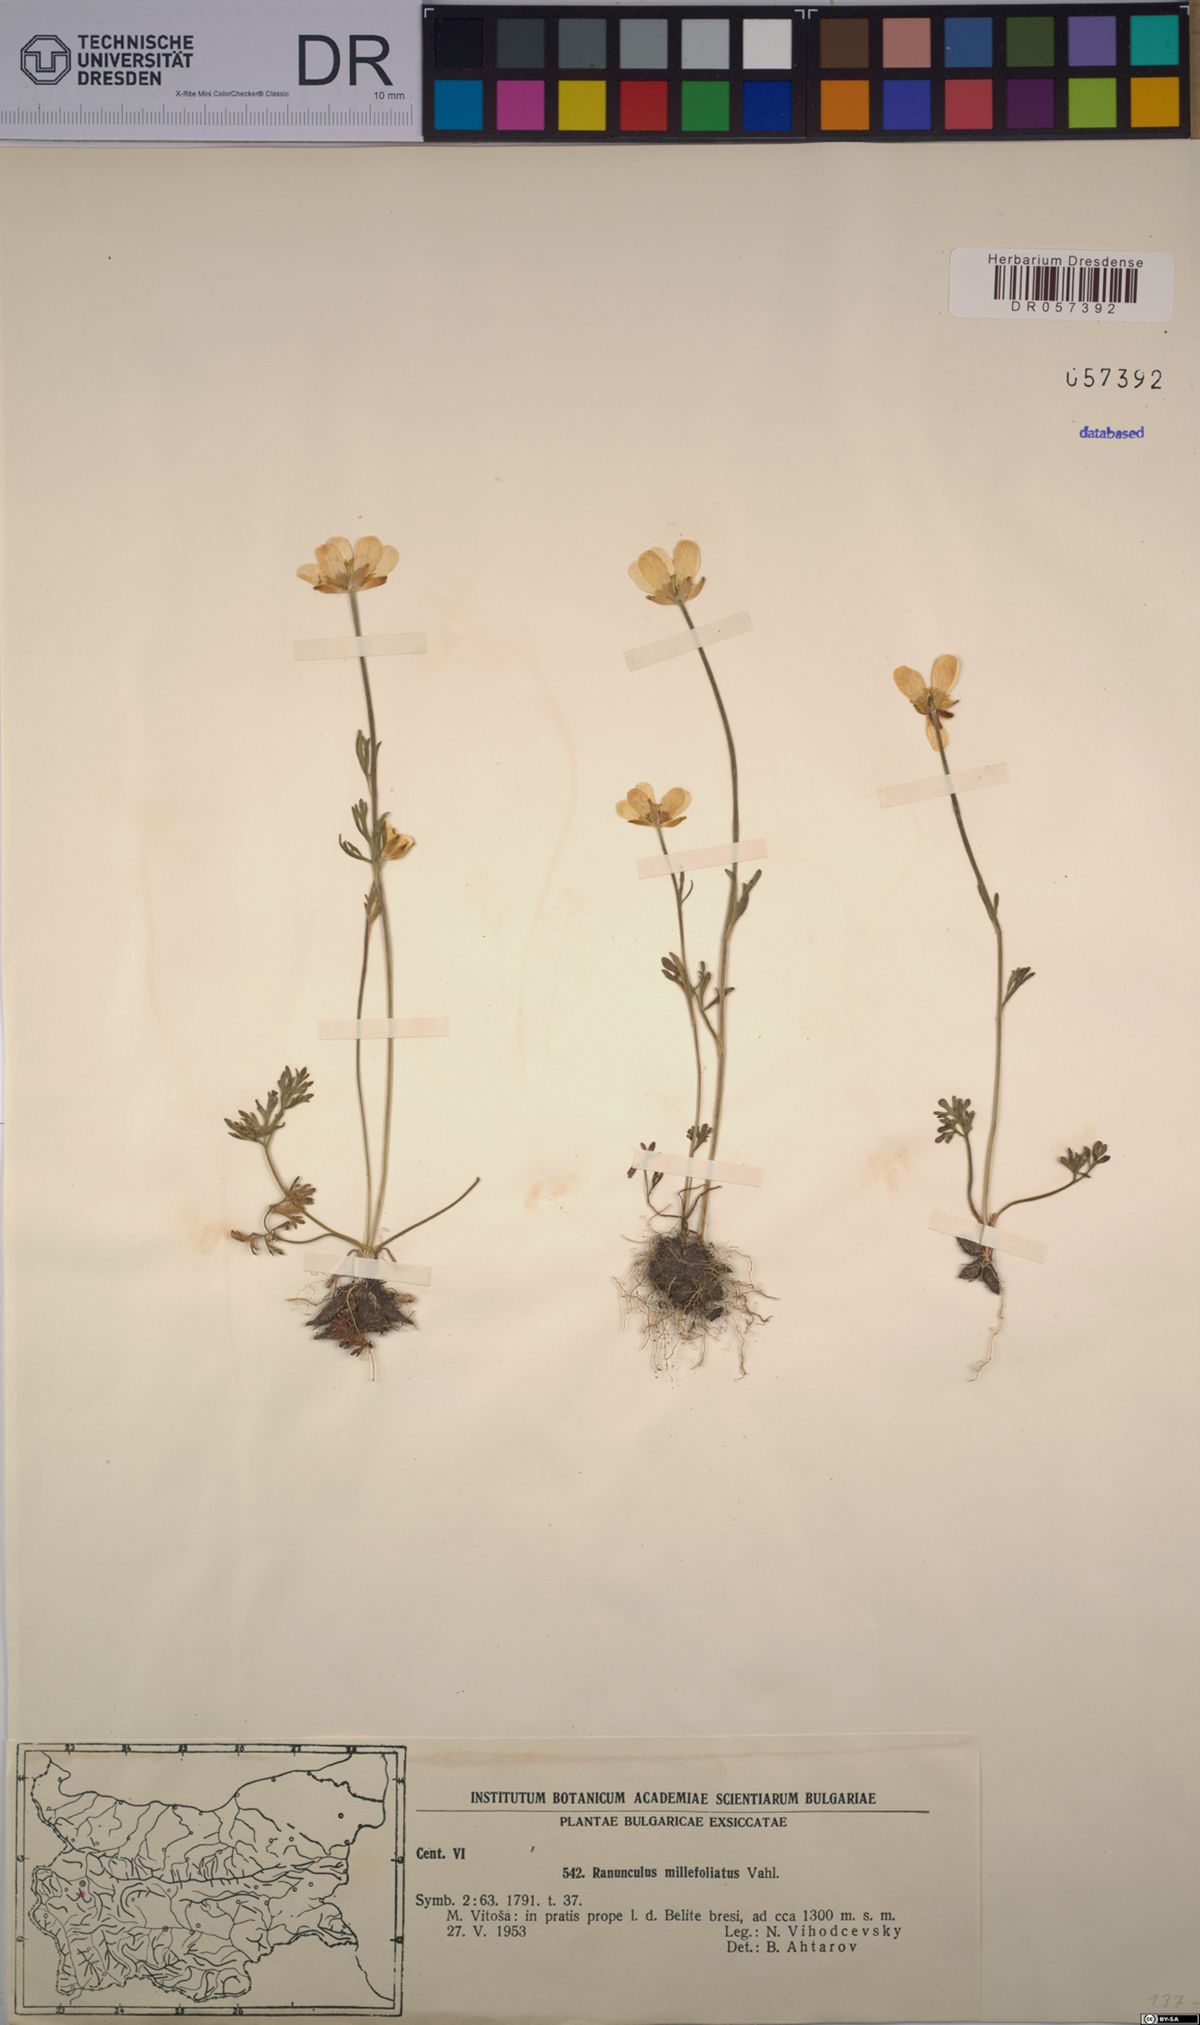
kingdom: Plantae
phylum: Tracheophyta
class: Magnoliopsida
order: Ranunculales
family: Ranunculaceae
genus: Ranunculus
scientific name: Ranunculus millefoliatus
